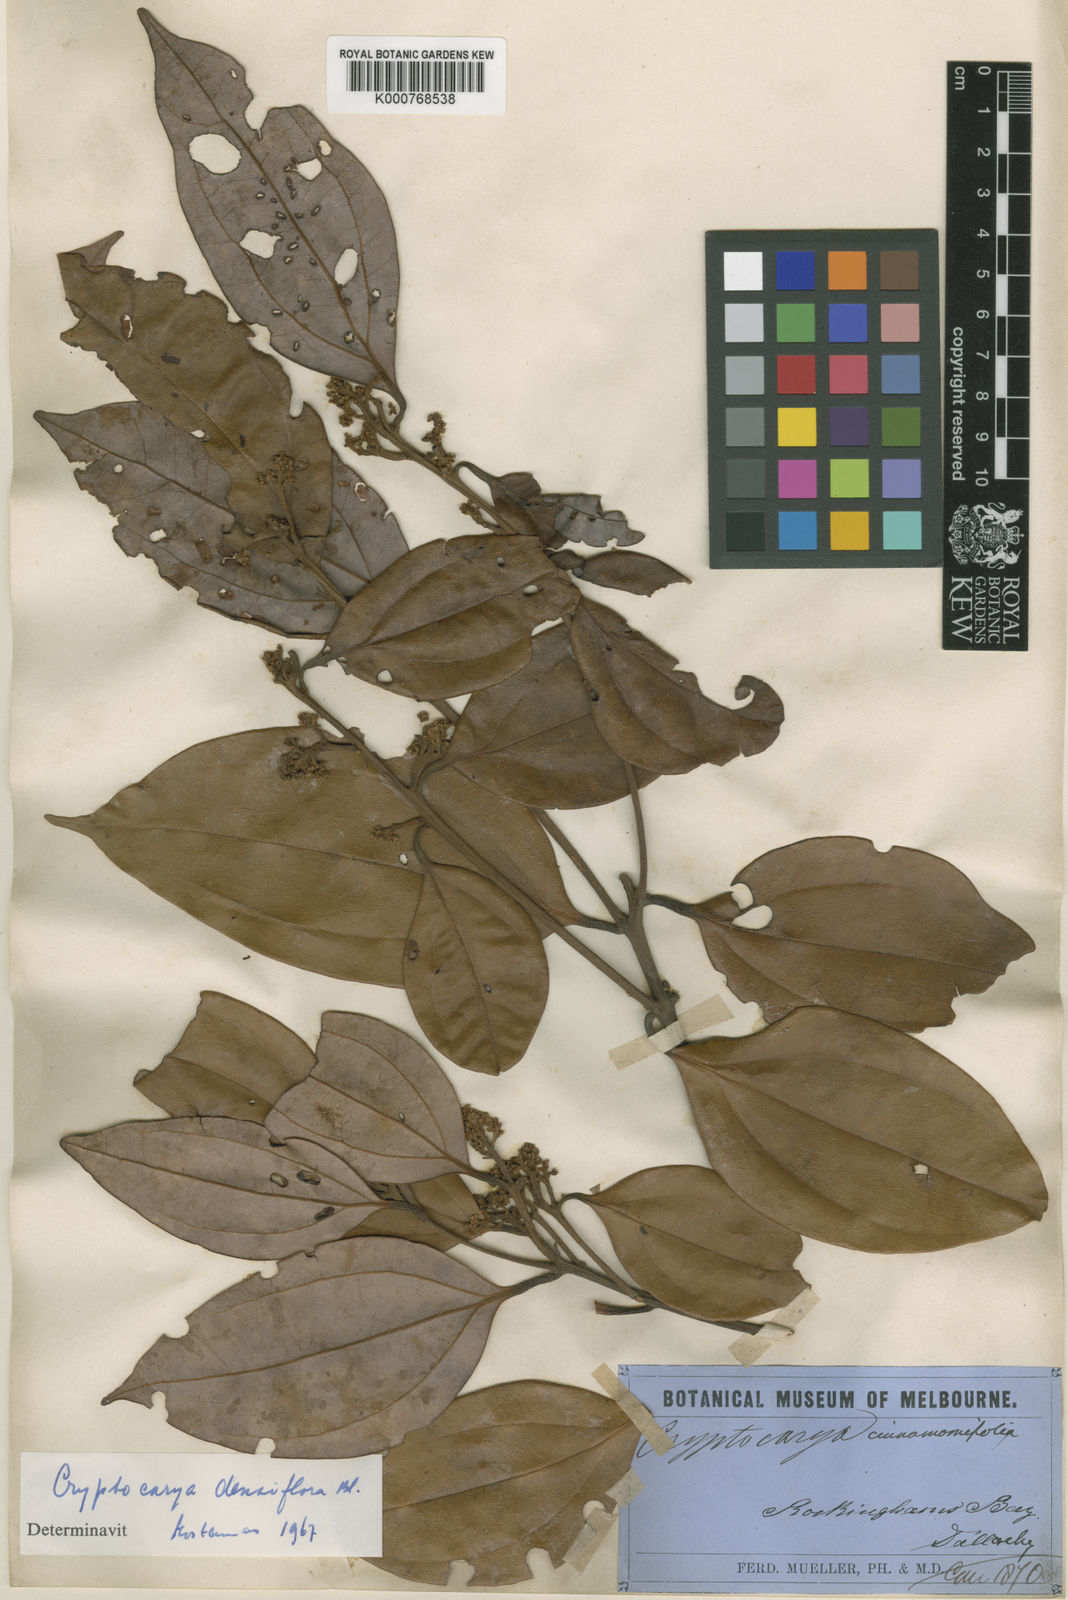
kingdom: Plantae
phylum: Tracheophyta
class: Magnoliopsida
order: Laurales
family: Lauraceae
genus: Cryptocarya
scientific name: Cryptocarya densiflora
